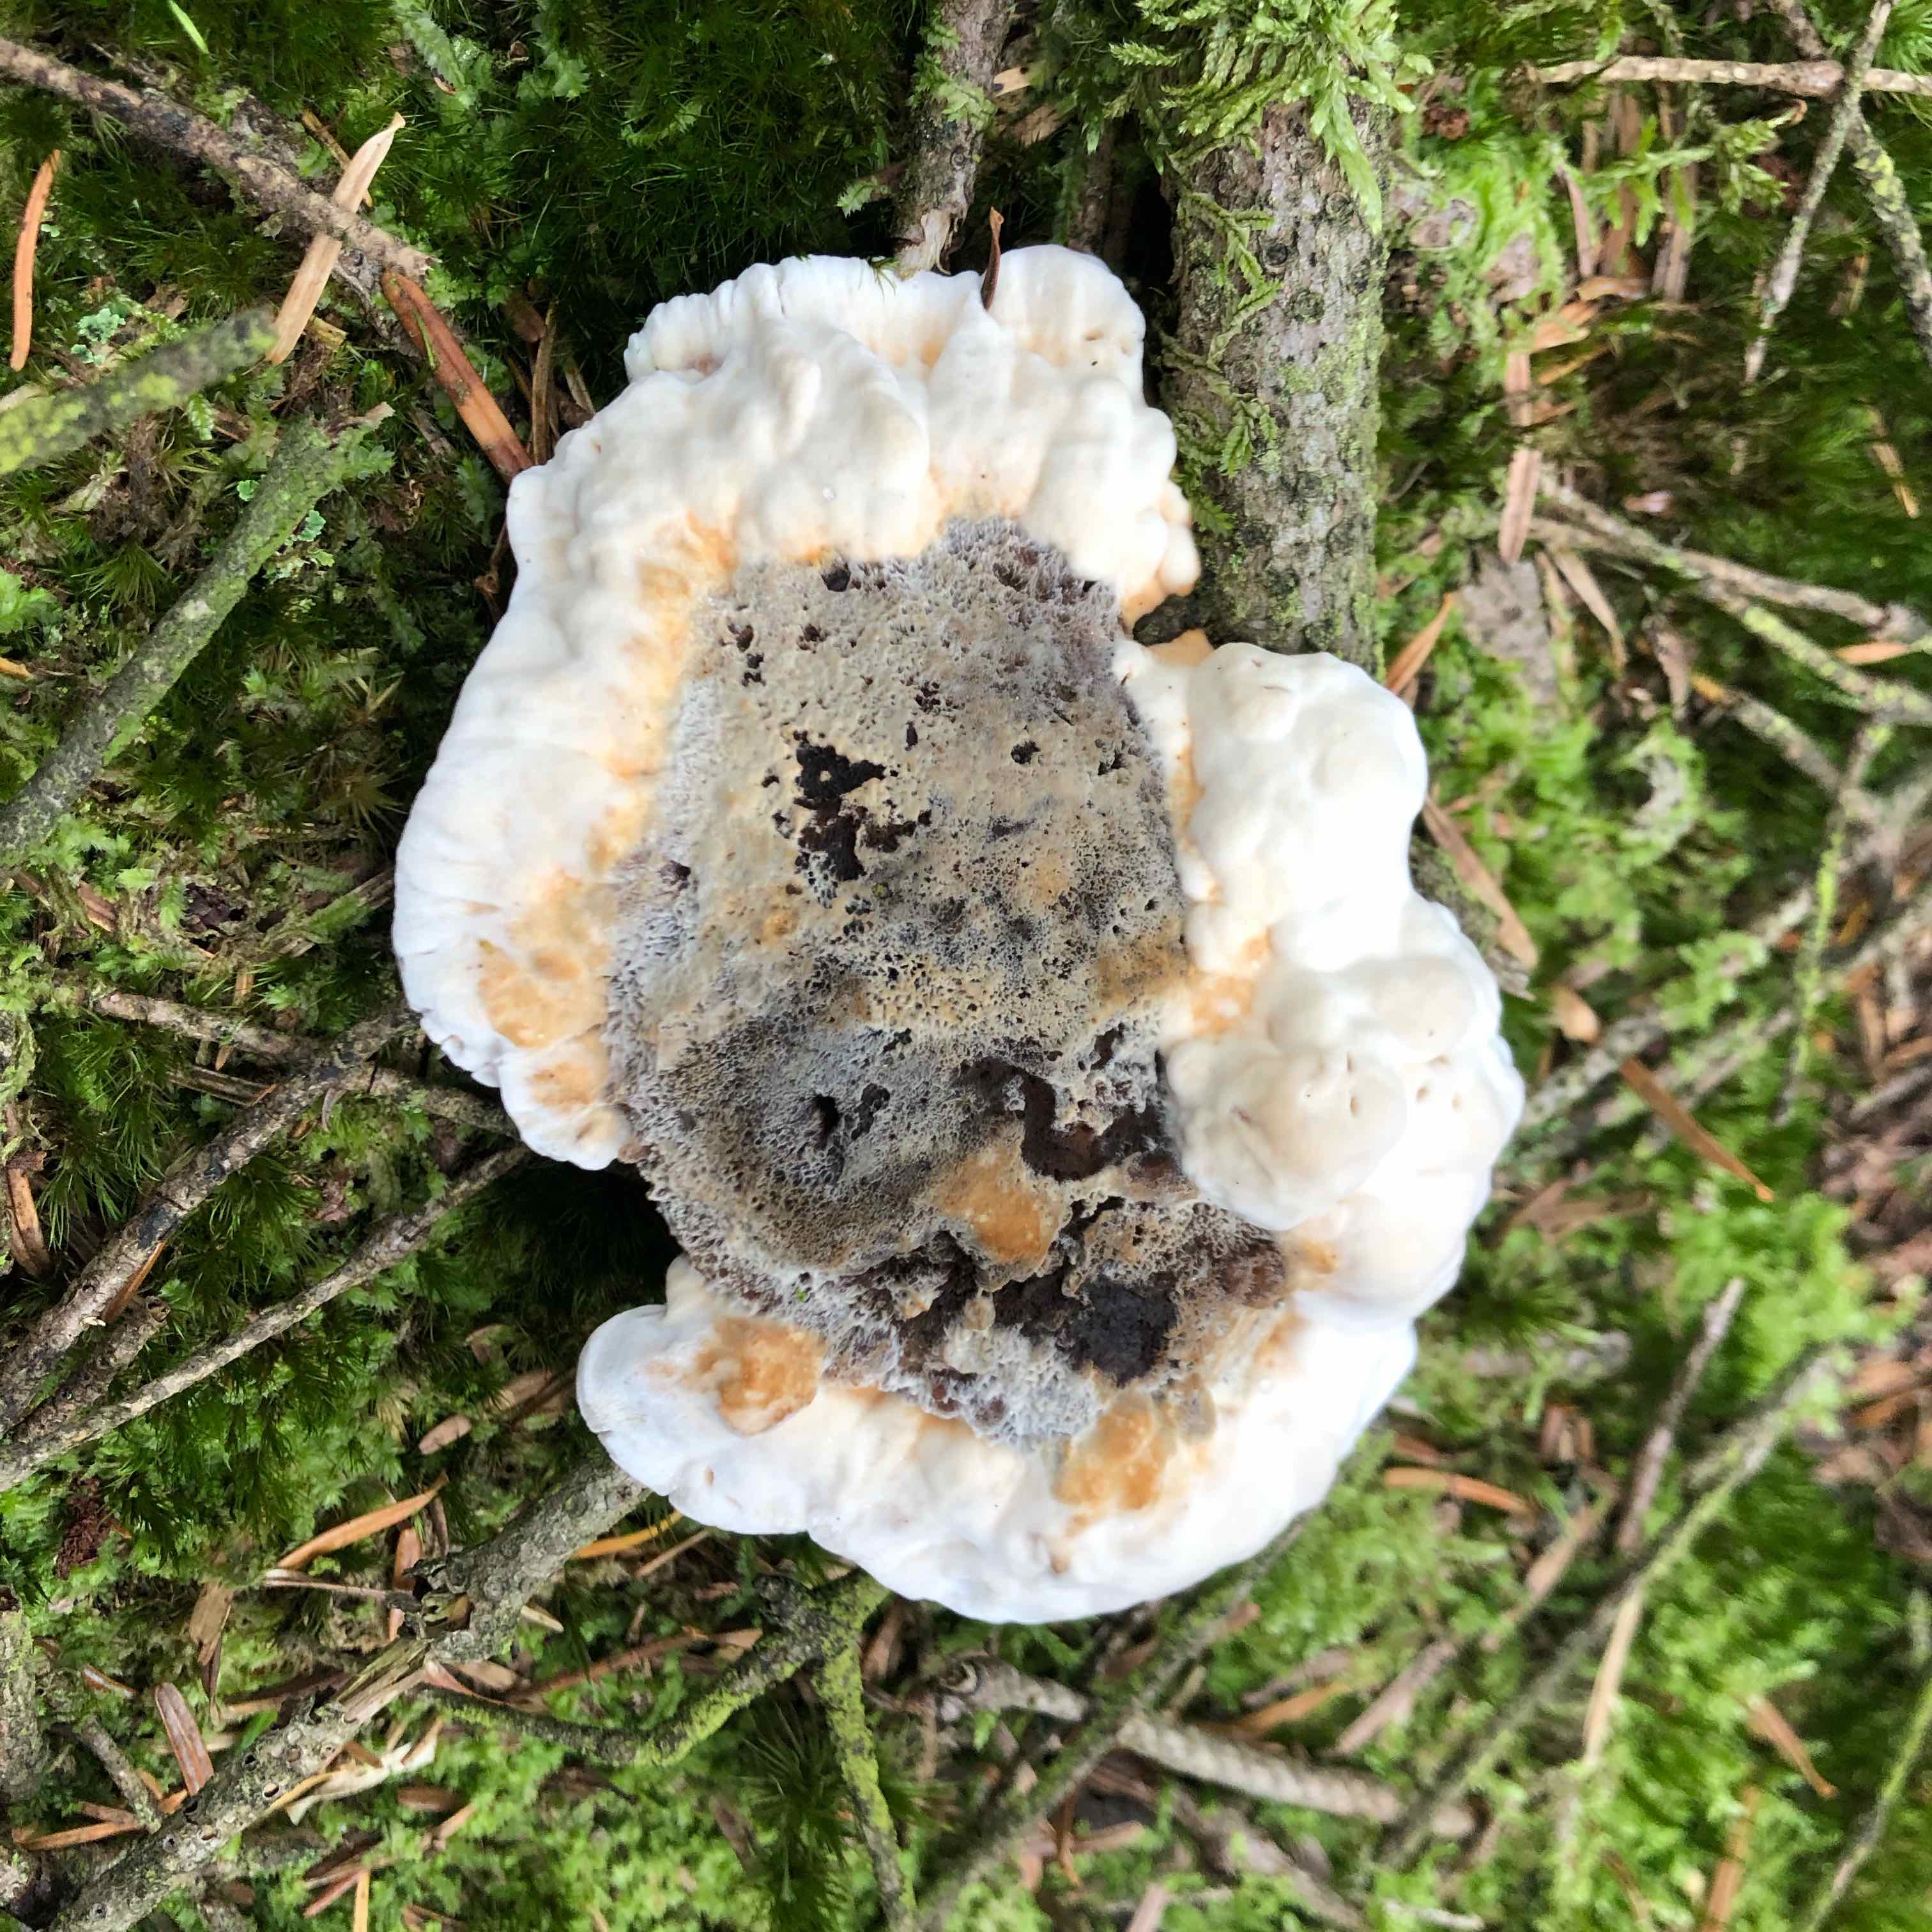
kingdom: Fungi
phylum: Basidiomycota
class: Agaricomycetes
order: Thelephorales
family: Bankeraceae
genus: Hydnellum
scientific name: Hydnellum aurantiacum
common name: orange korkpigsvamp
